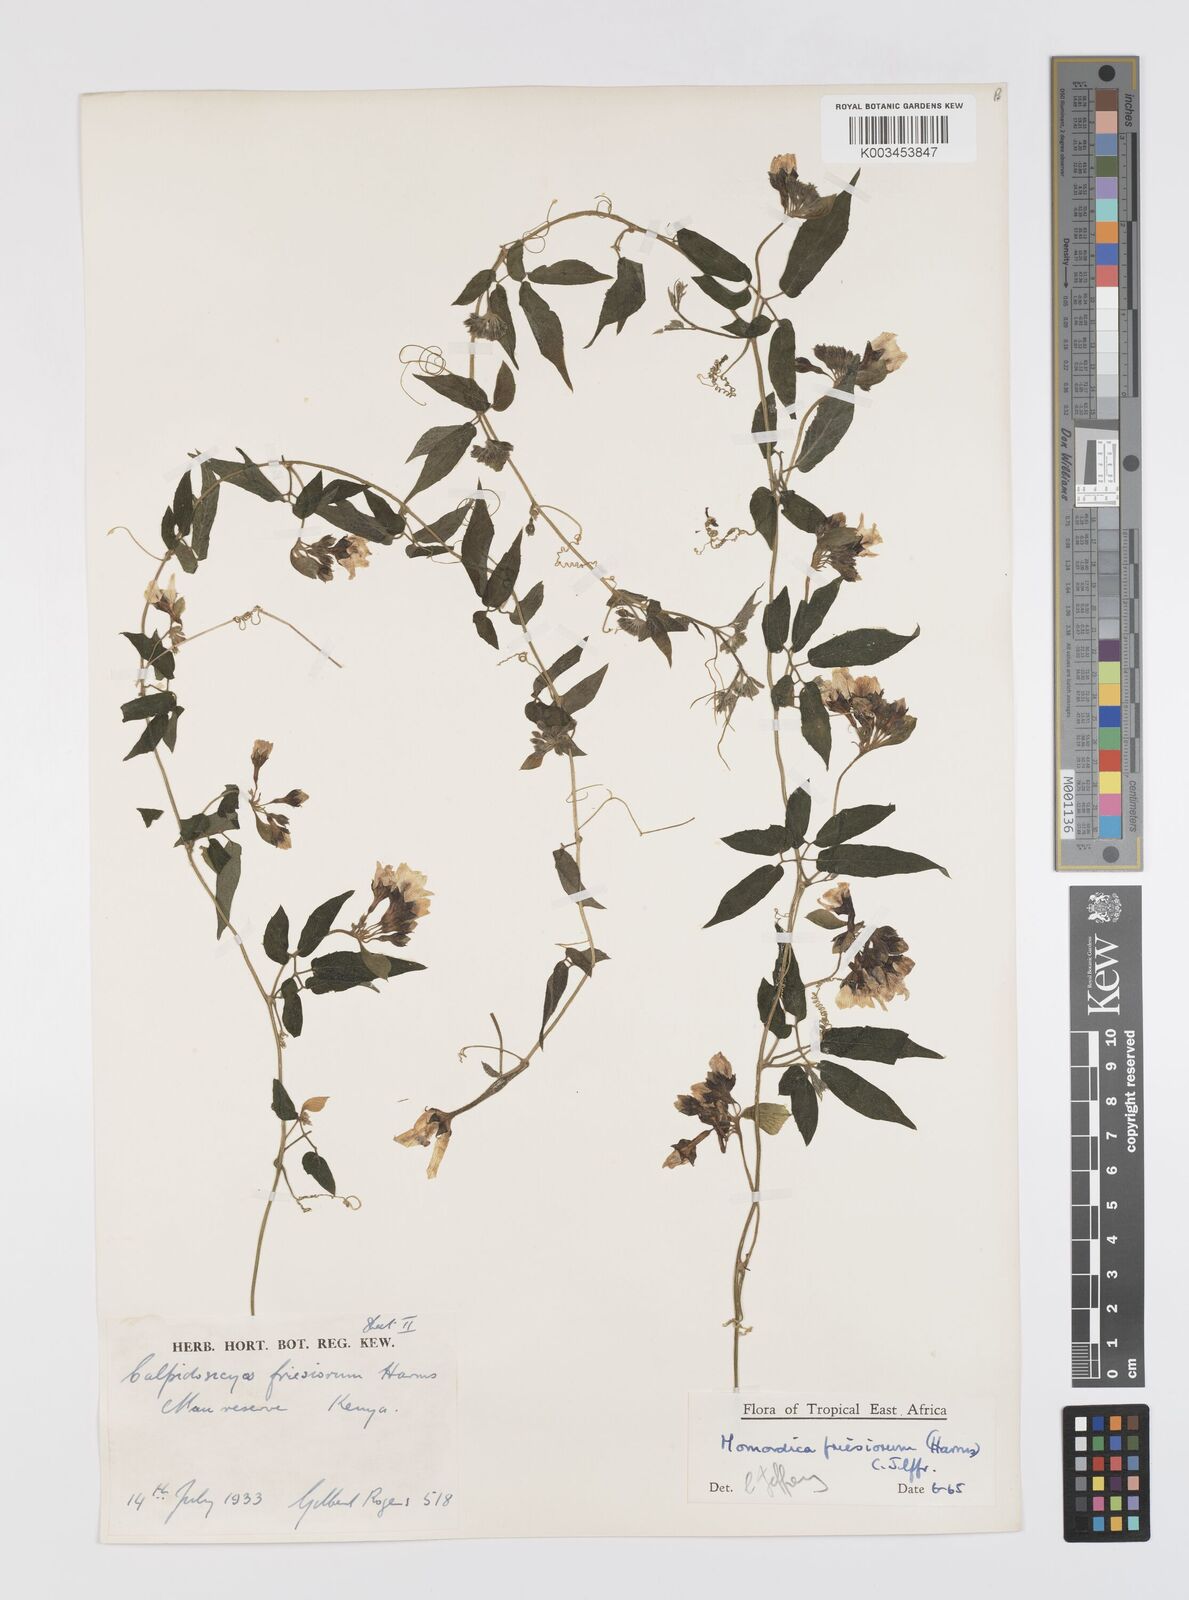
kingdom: Plantae
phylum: Tracheophyta
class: Magnoliopsida
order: Cucurbitales
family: Cucurbitaceae
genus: Momordica
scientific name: Momordica friesiorum
